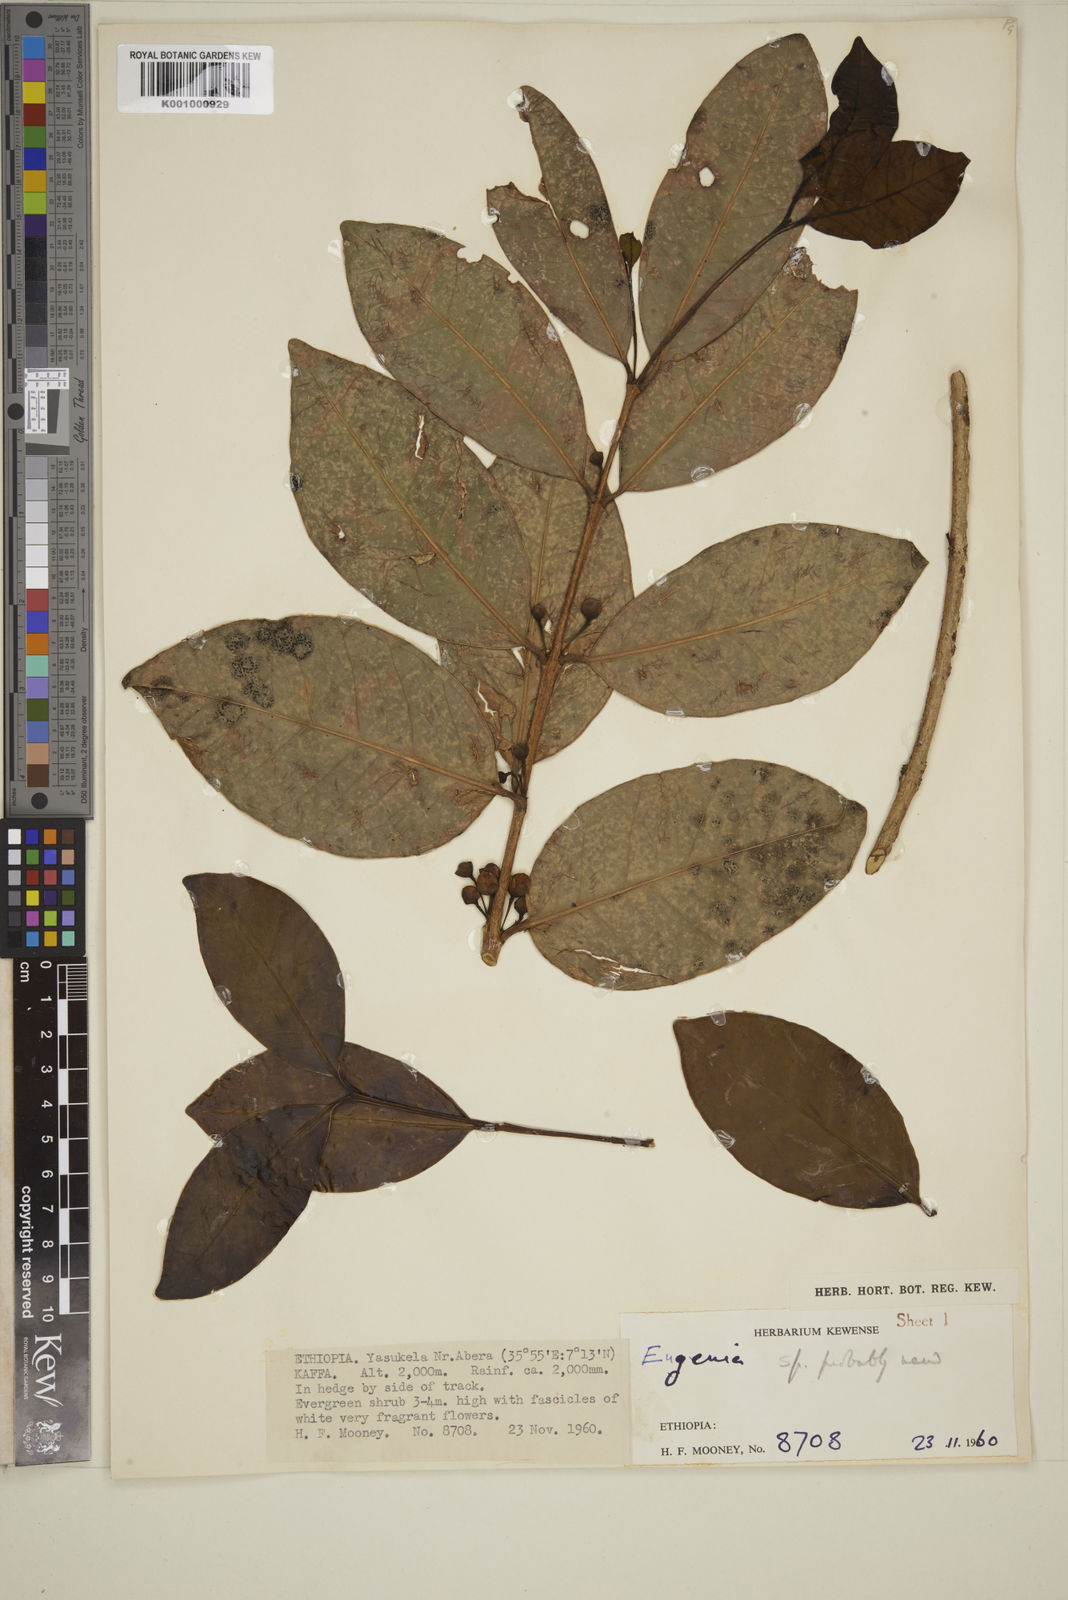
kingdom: Plantae
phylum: Tracheophyta
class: Magnoliopsida
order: Myrtales
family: Myrtaceae
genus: Eugenia
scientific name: Eugenia bukobensis
